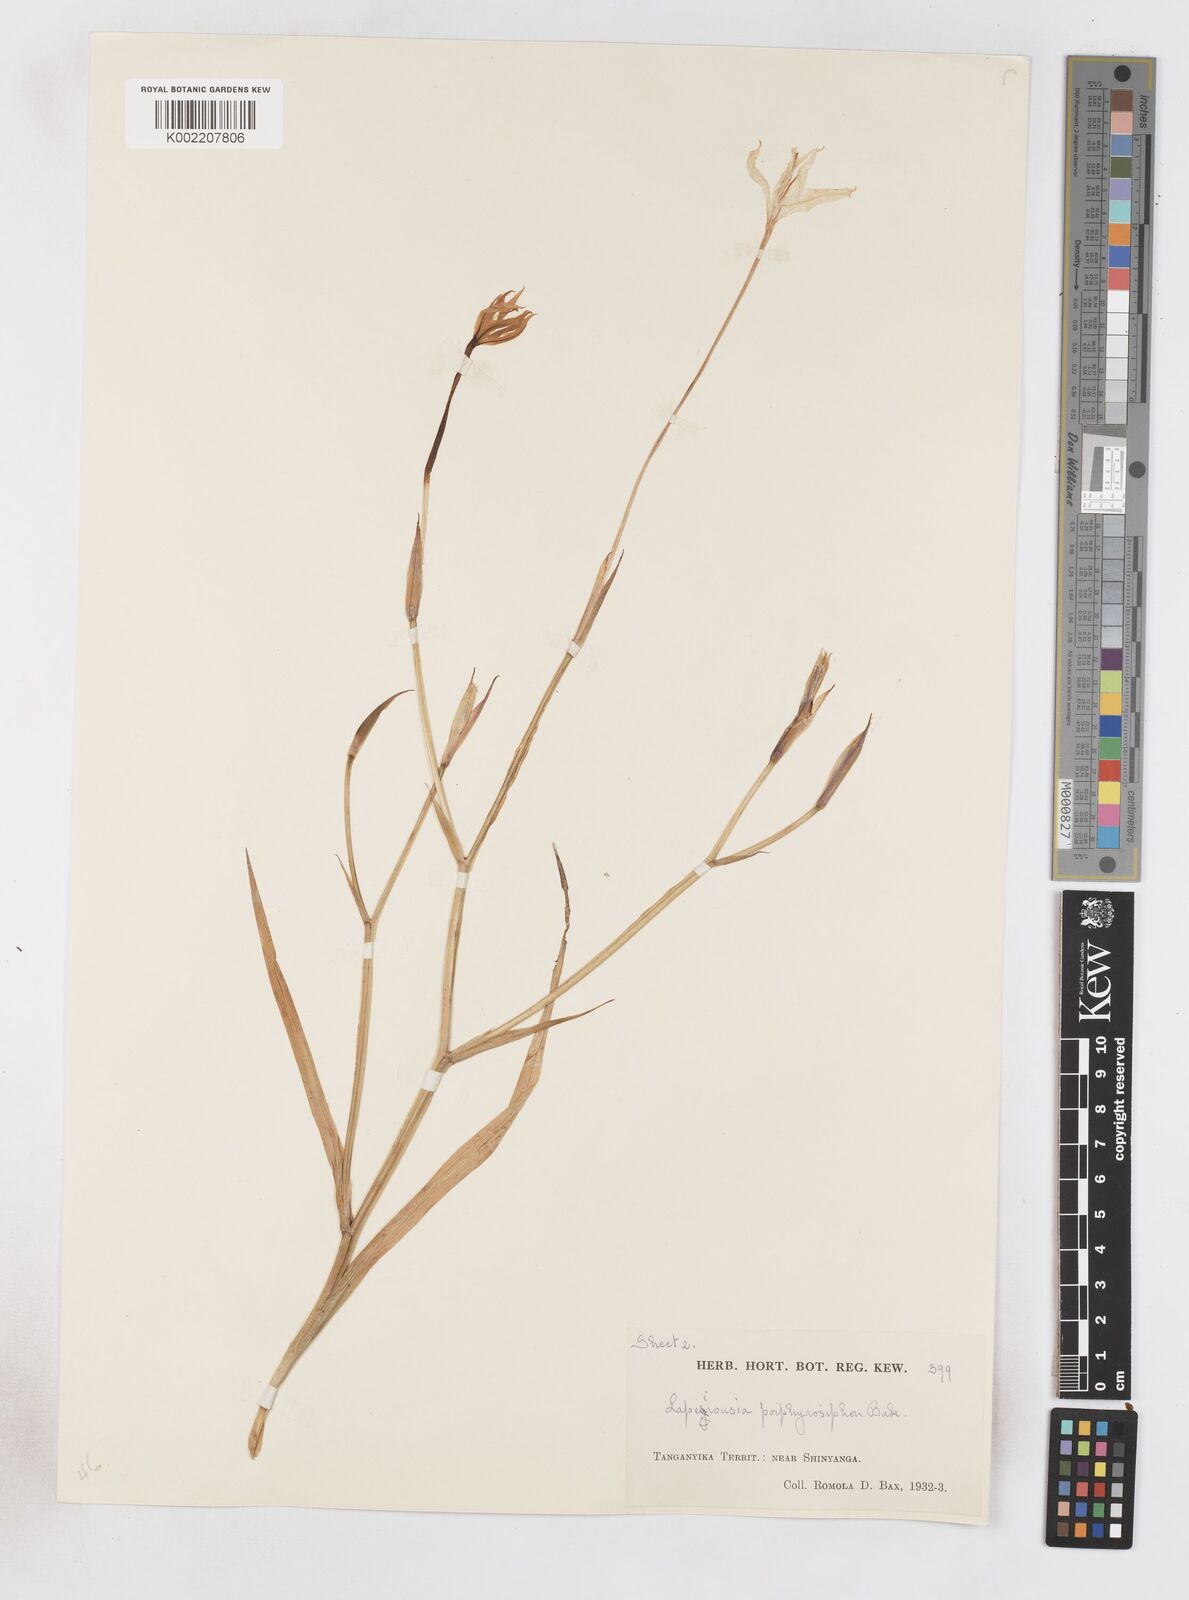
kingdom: Plantae
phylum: Tracheophyta
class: Liliopsida
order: Asparagales
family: Iridaceae
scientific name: Iridaceae
